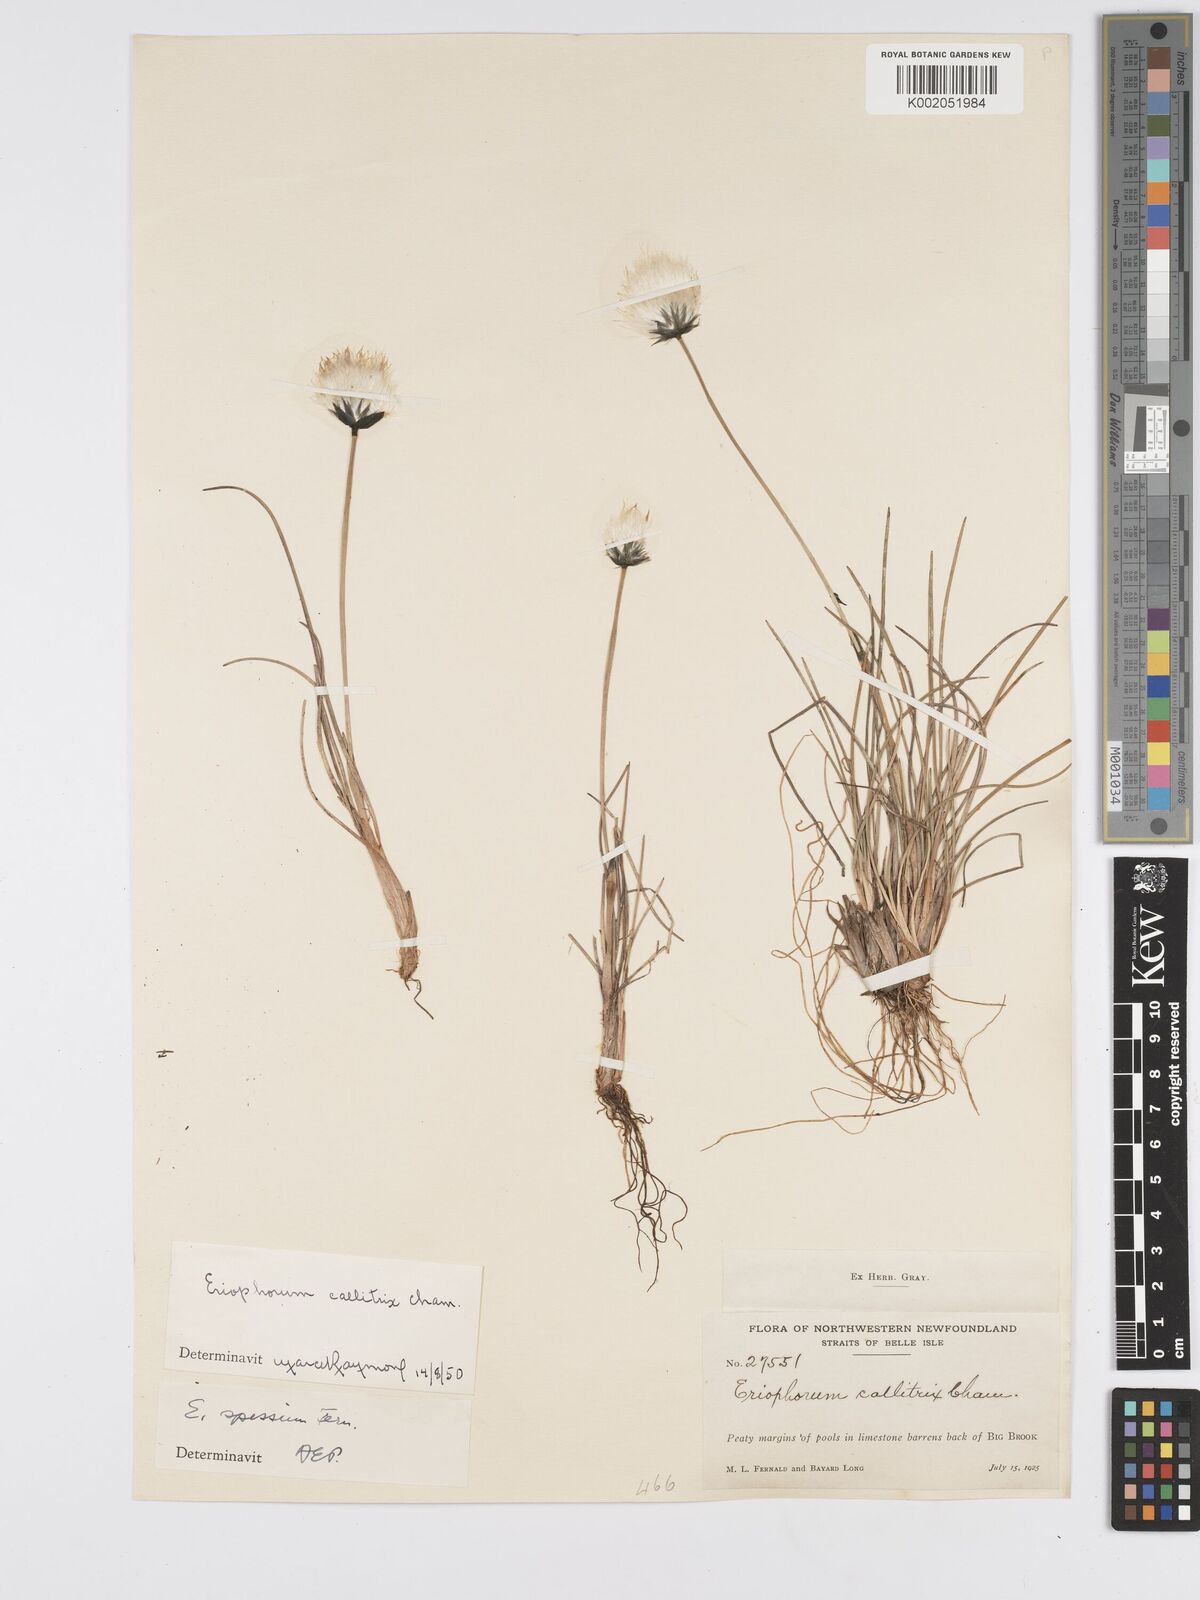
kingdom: Plantae
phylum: Tracheophyta
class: Liliopsida
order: Poales
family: Cyperaceae
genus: Eriophorum
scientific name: Eriophorum callitrix
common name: Arctic cottongrass
